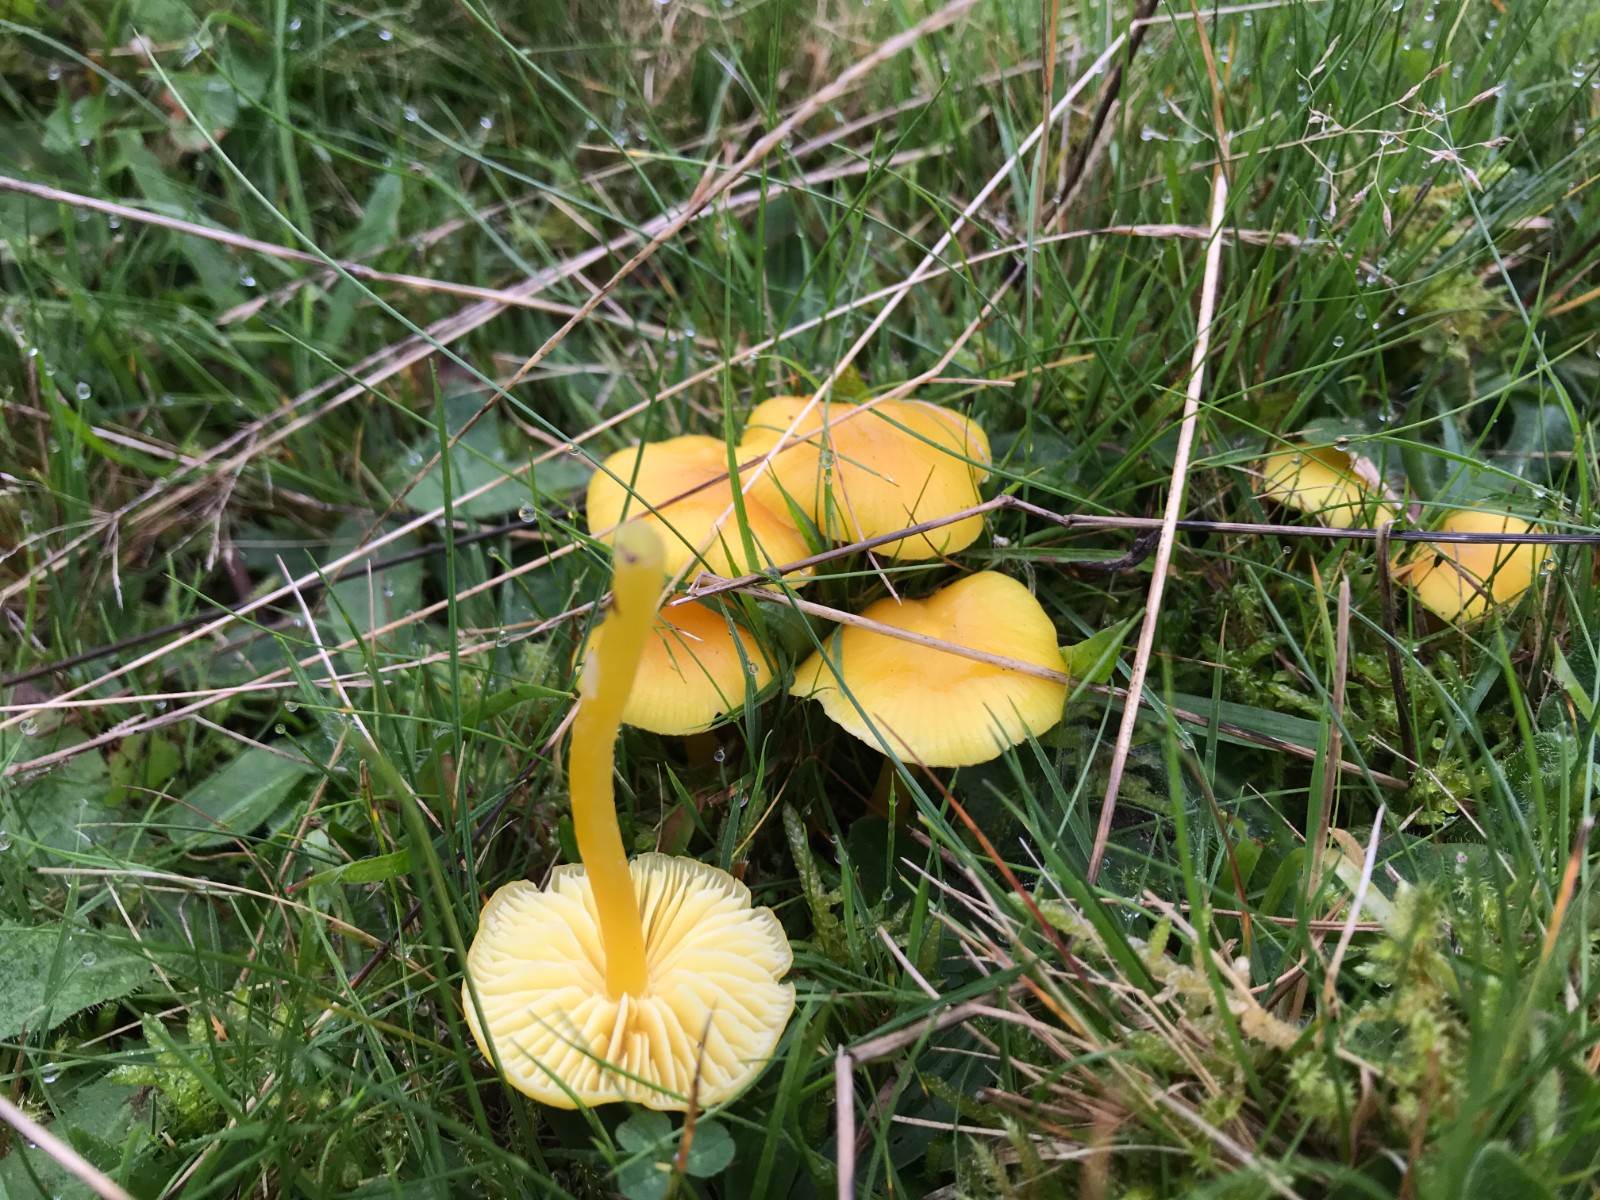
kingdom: Fungi
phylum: Basidiomycota
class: Agaricomycetes
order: Agaricales
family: Hygrophoraceae
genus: Hygrocybe
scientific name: Hygrocybe chlorophana
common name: gul vokshat
